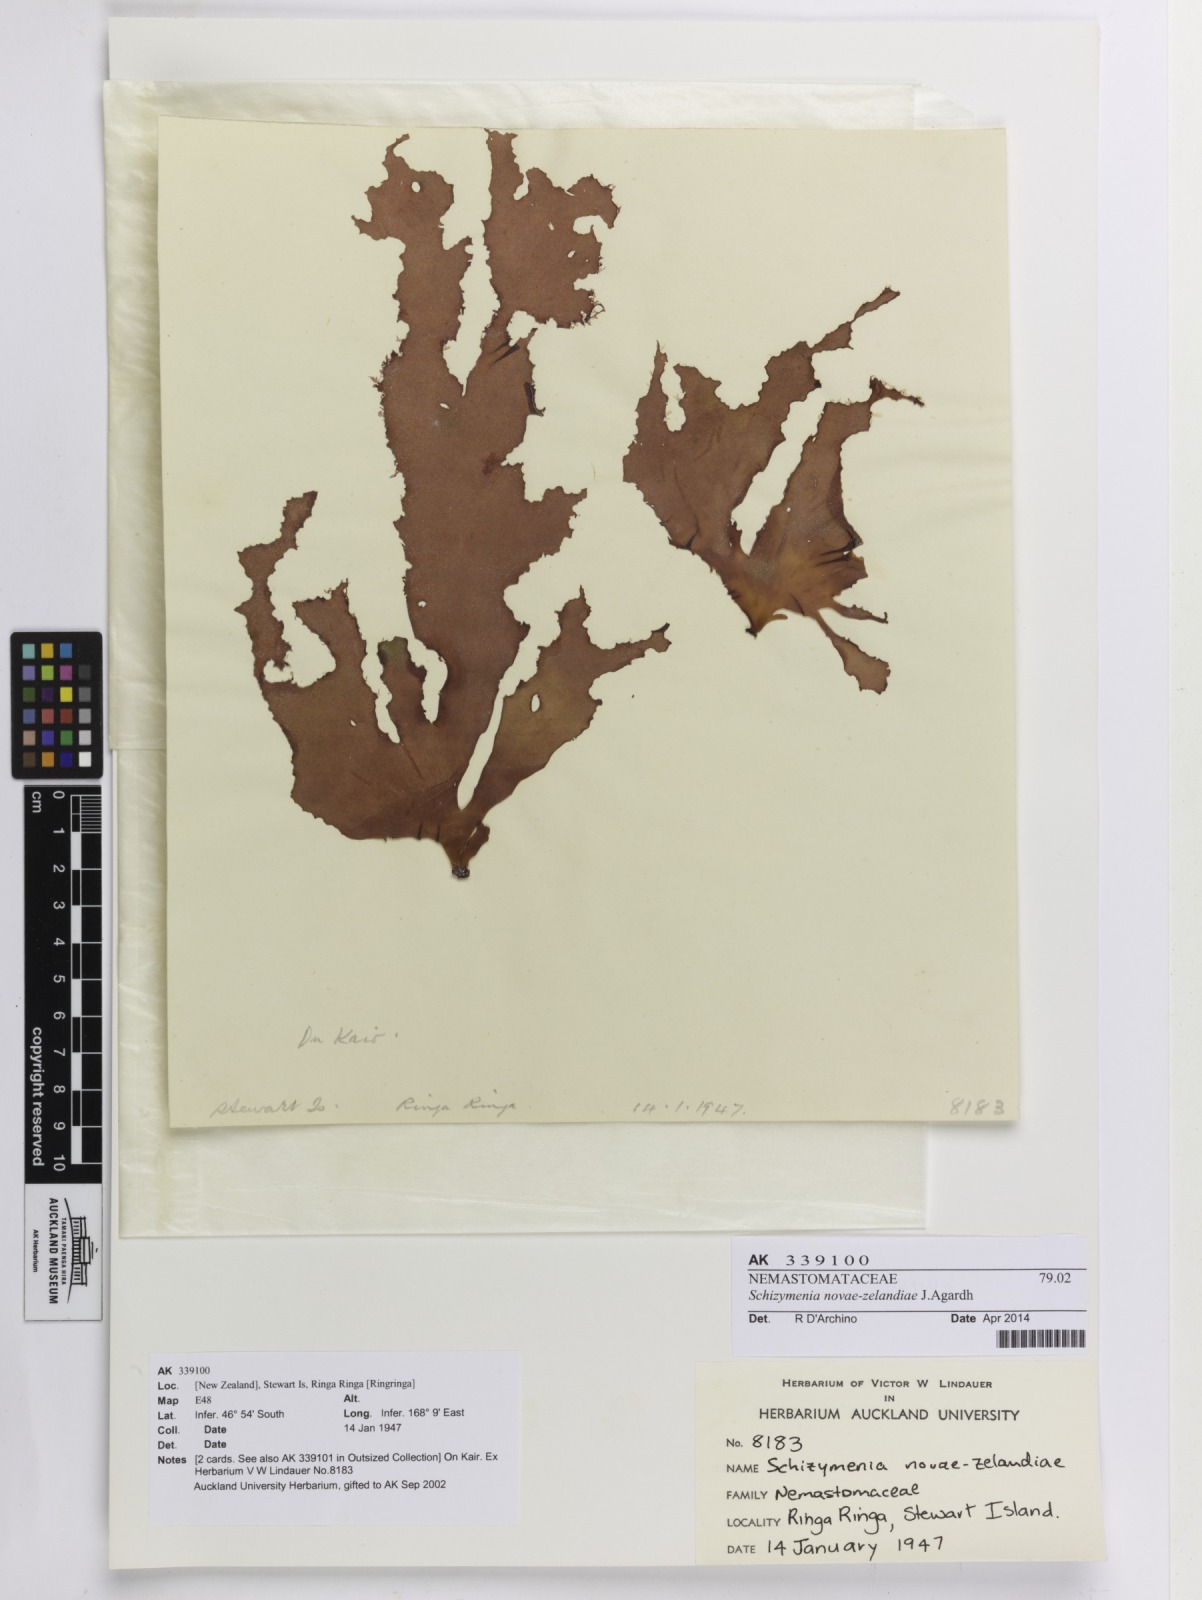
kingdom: Plantae
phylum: Rhodophyta
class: Florideophyceae
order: Nemastomatales
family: Schizymeniaceae
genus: Schizymenia
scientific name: Schizymenia novae-zelandiae
